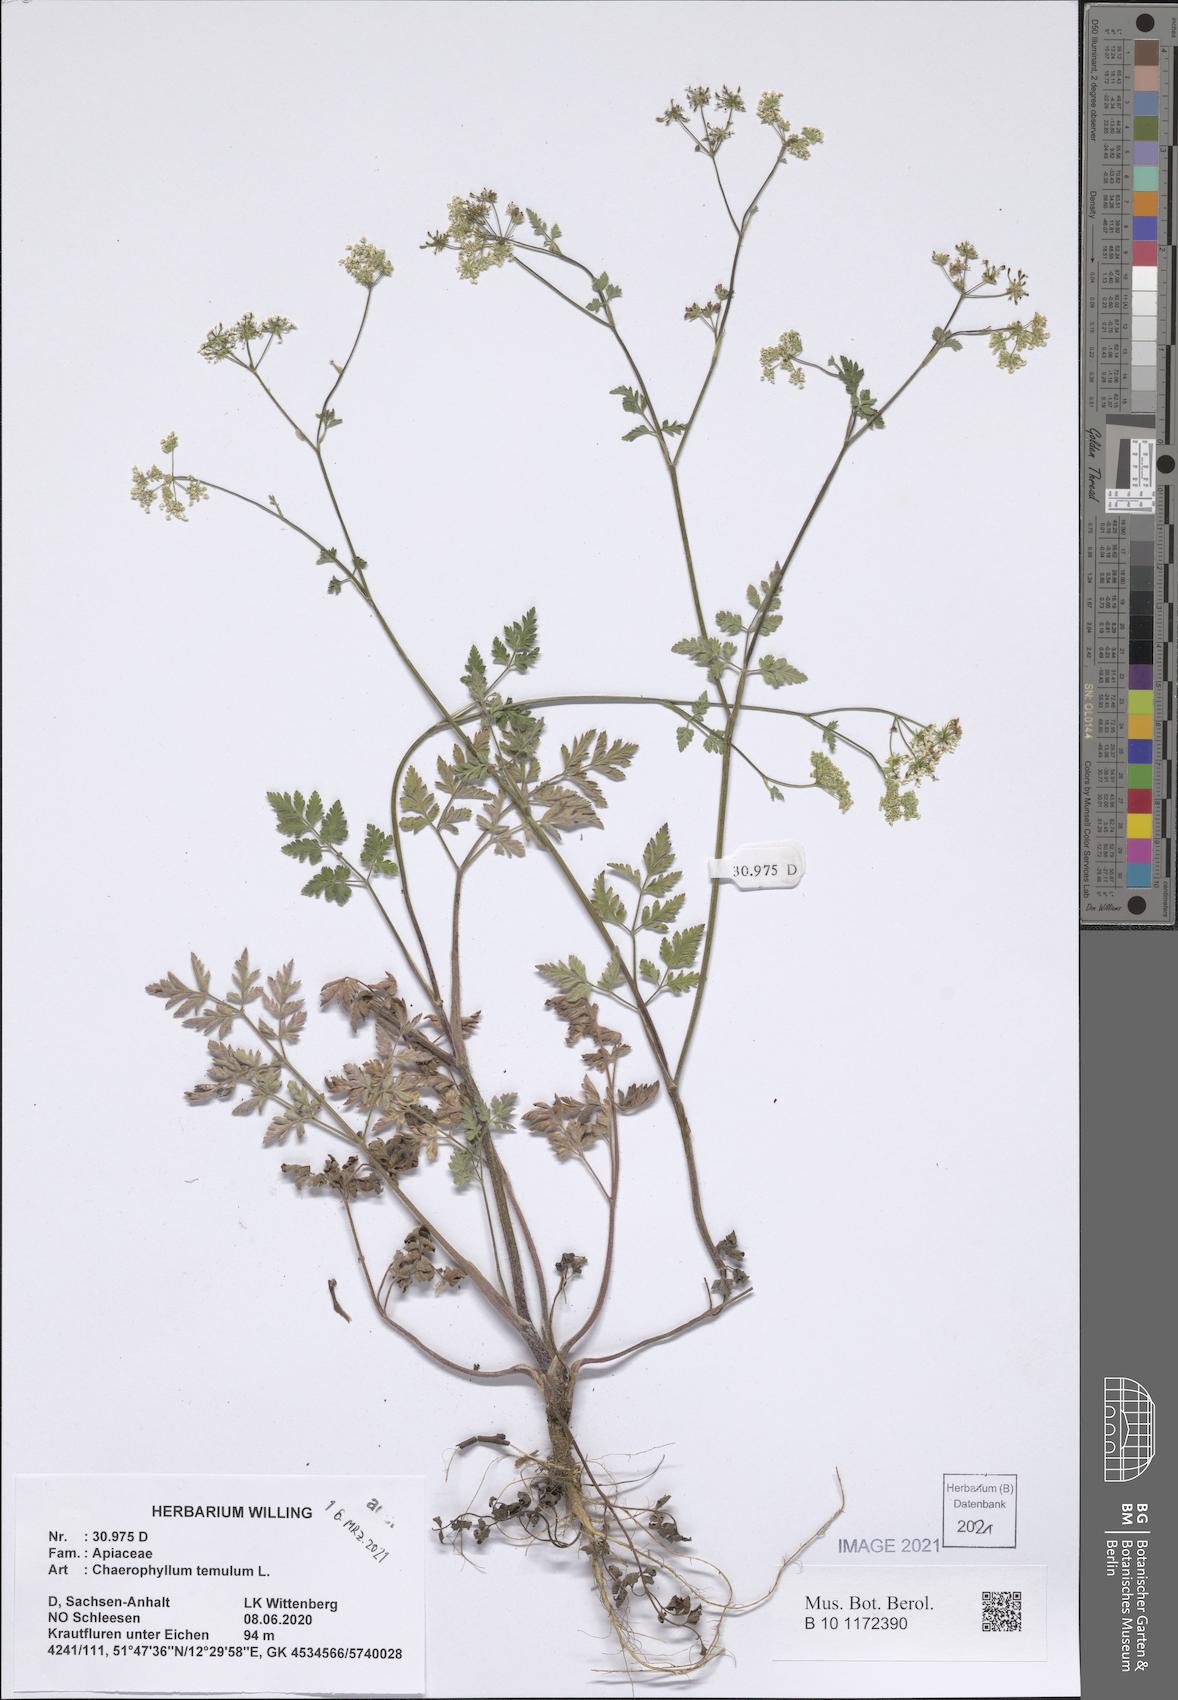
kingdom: Plantae
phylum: Tracheophyta
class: Magnoliopsida
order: Apiales
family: Apiaceae
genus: Chaerophyllum
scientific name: Chaerophyllum temulum
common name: Rough chervil
